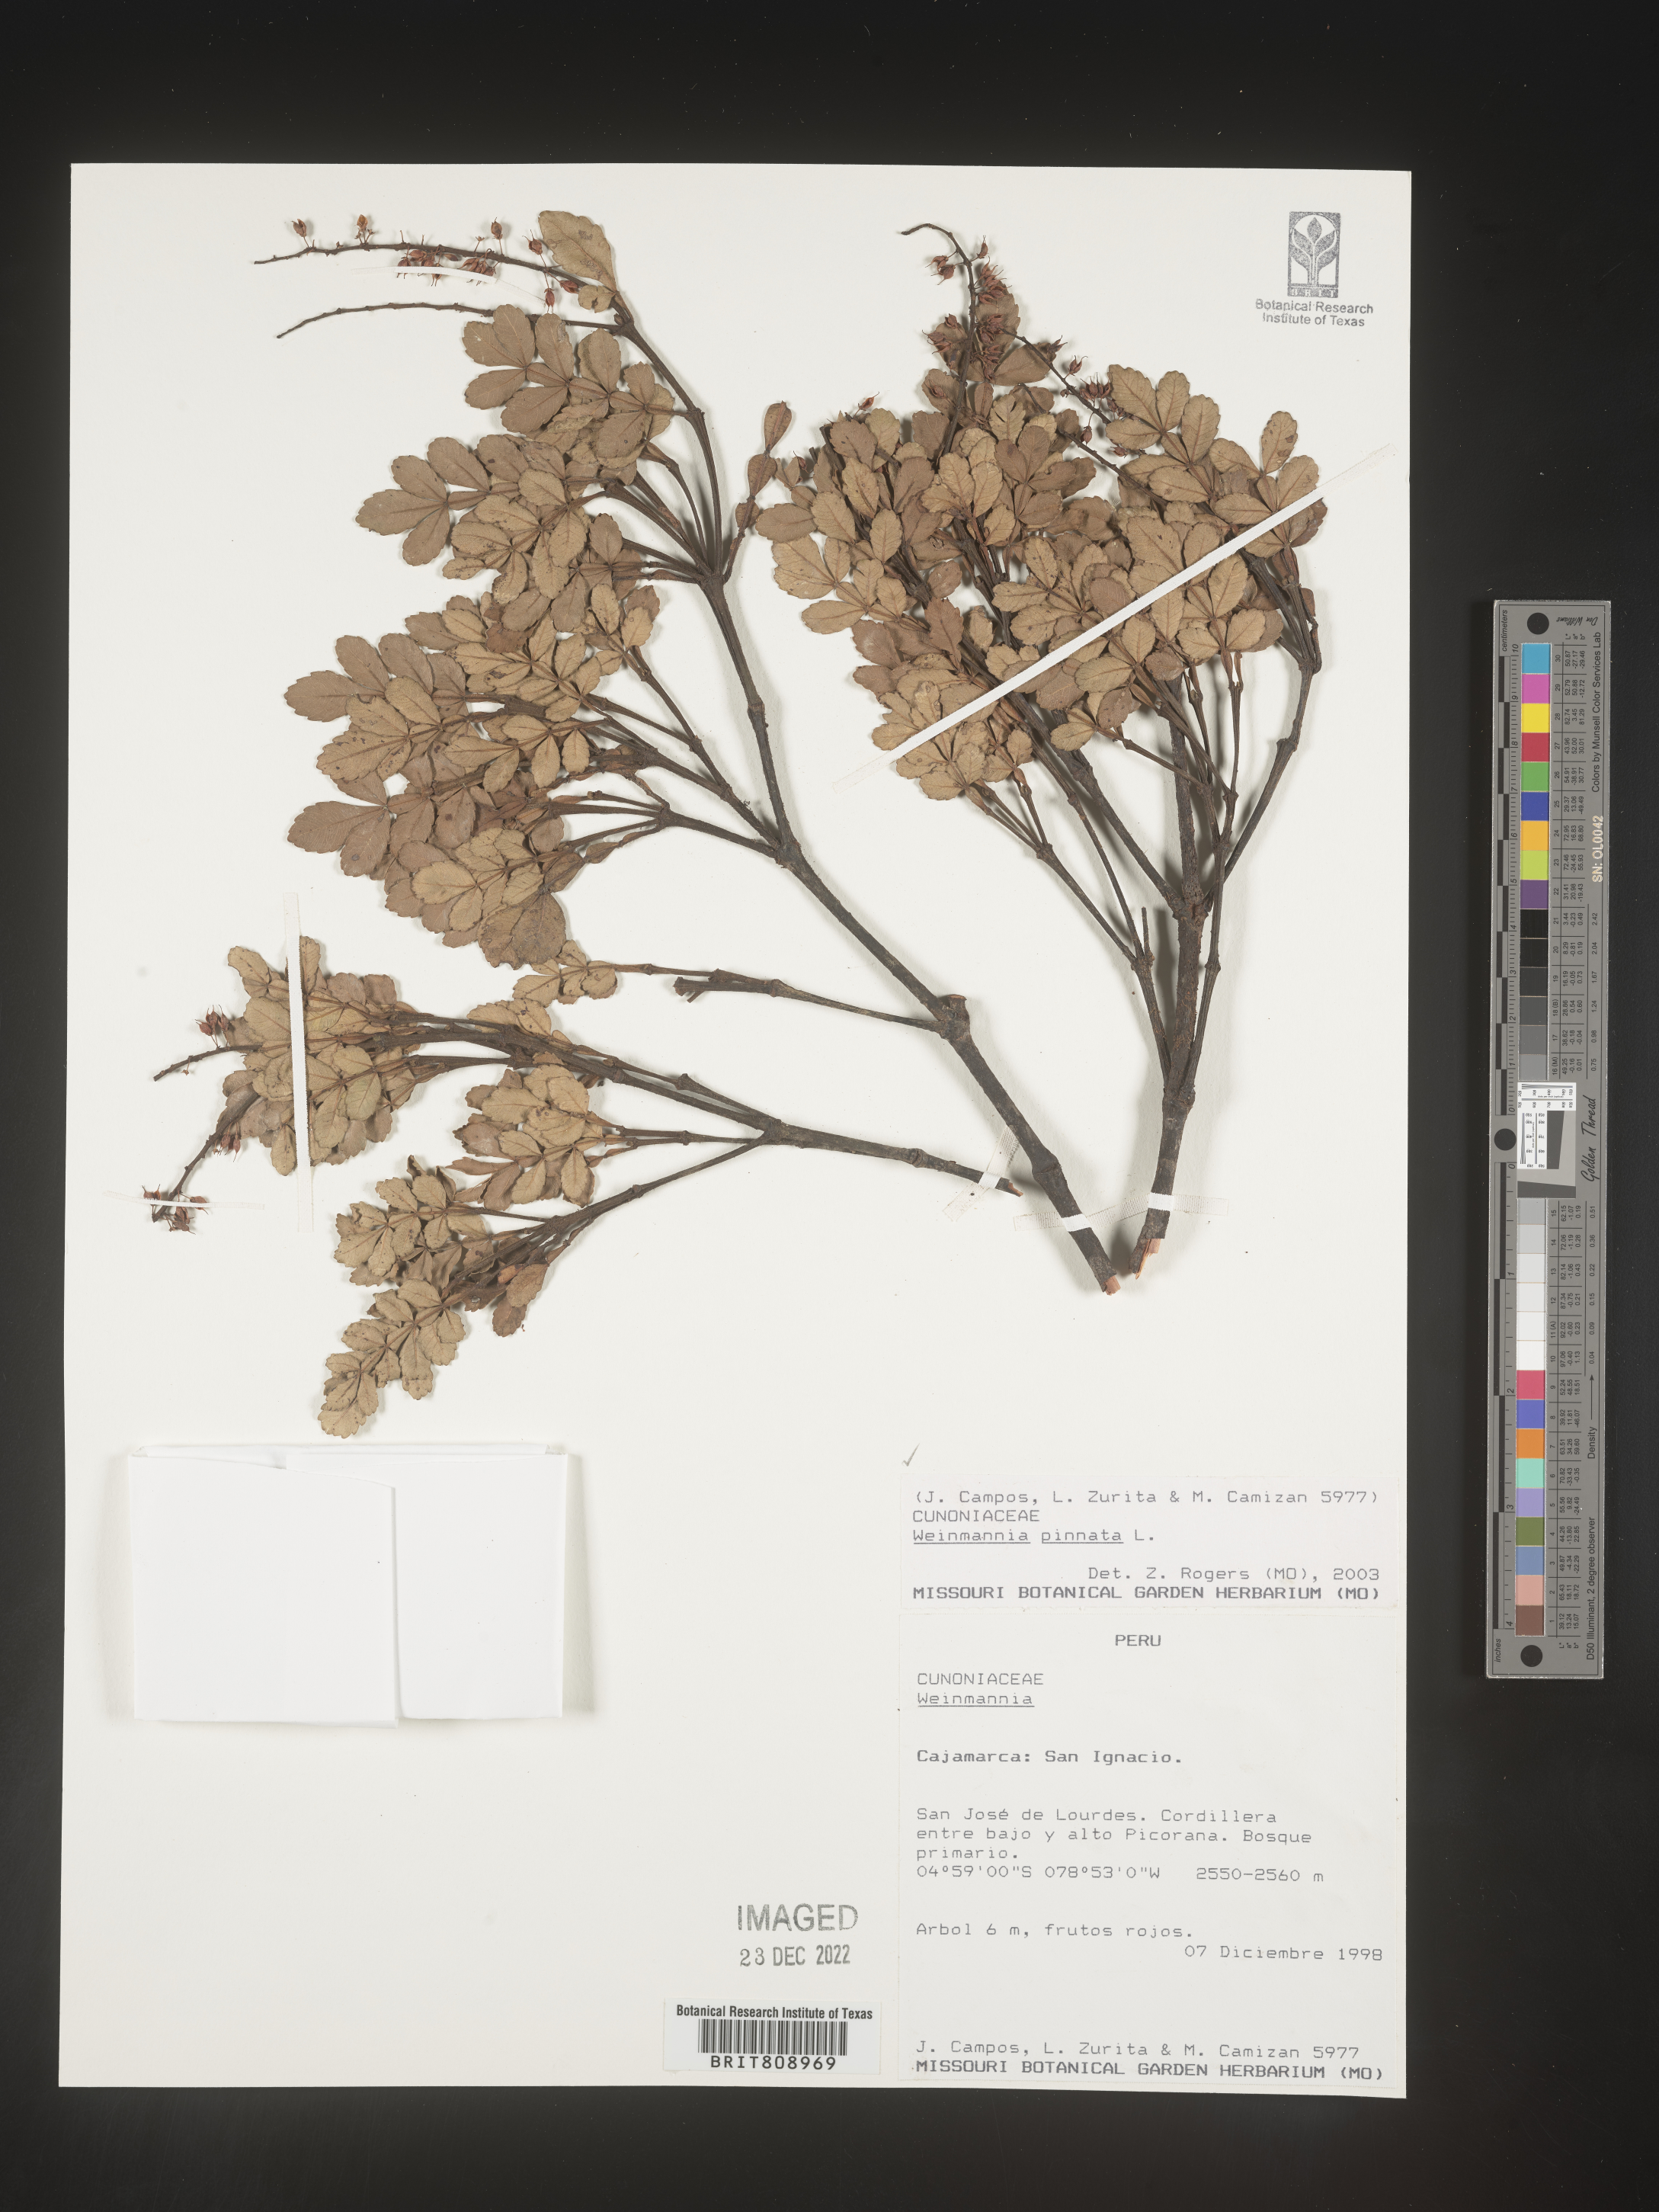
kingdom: Plantae
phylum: Tracheophyta
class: Magnoliopsida
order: Oxalidales
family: Cunoniaceae
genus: Weinmannia
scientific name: Weinmannia
